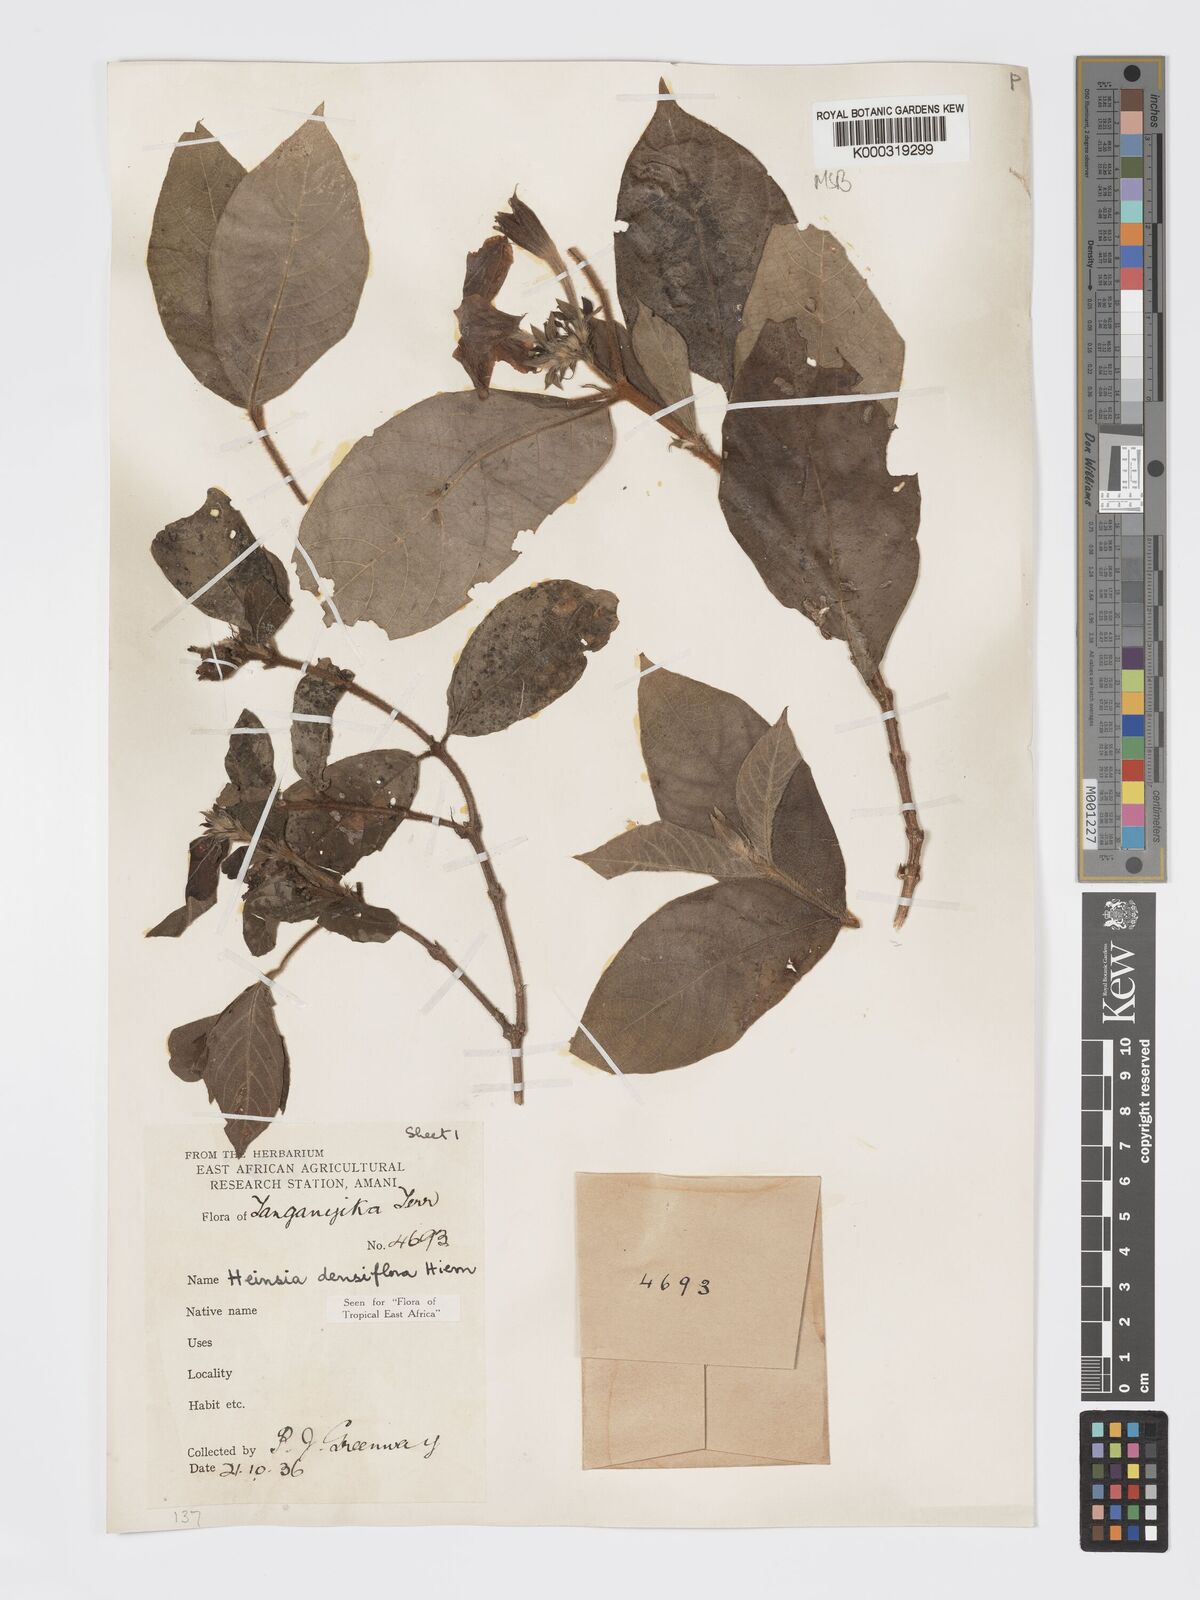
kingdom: Plantae
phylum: Tracheophyta
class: Magnoliopsida
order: Gentianales
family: Rubiaceae
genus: Heinsia
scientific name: Heinsia zanzibarica
